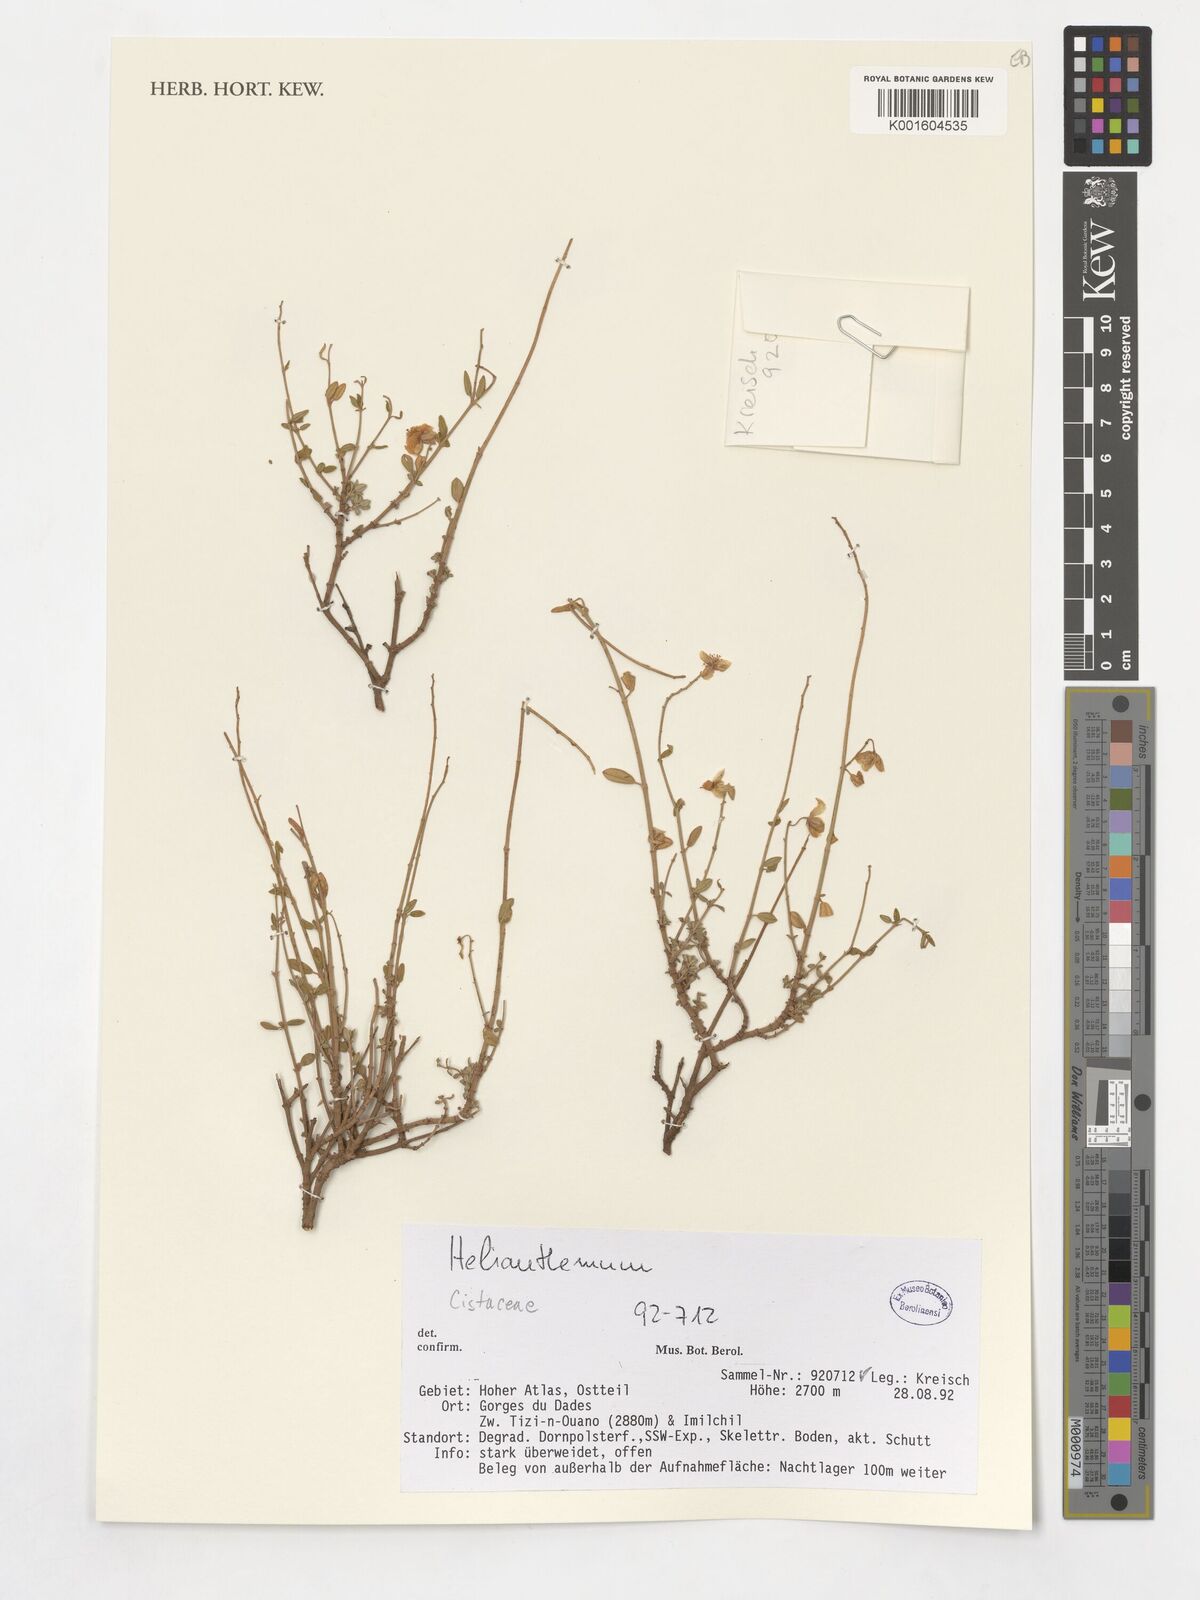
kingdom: Plantae
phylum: Tracheophyta
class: Magnoliopsida
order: Malvales
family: Cistaceae
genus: Helianthemum
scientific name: Helianthemum
